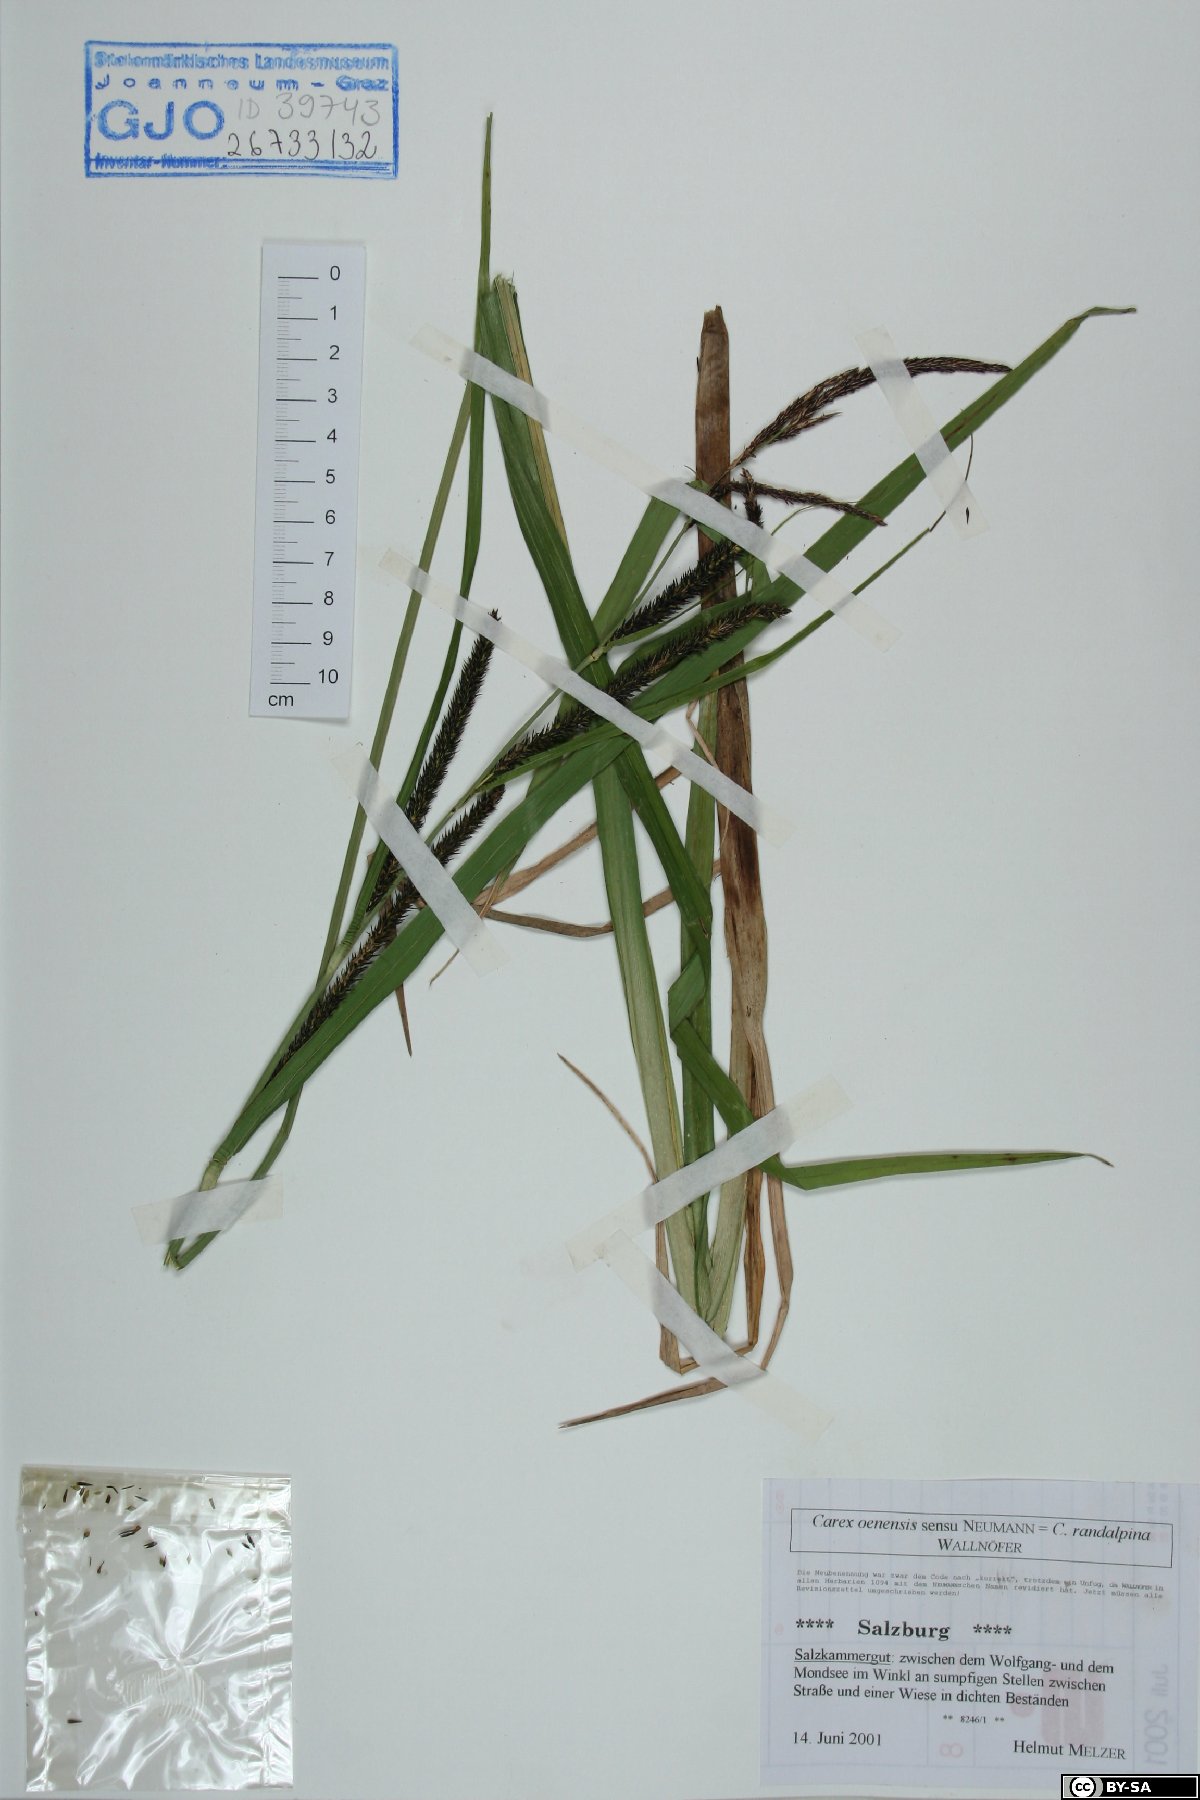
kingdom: Plantae
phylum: Tracheophyta
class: Liliopsida
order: Poales
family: Cyperaceae
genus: Carex
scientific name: Carex randalpina
